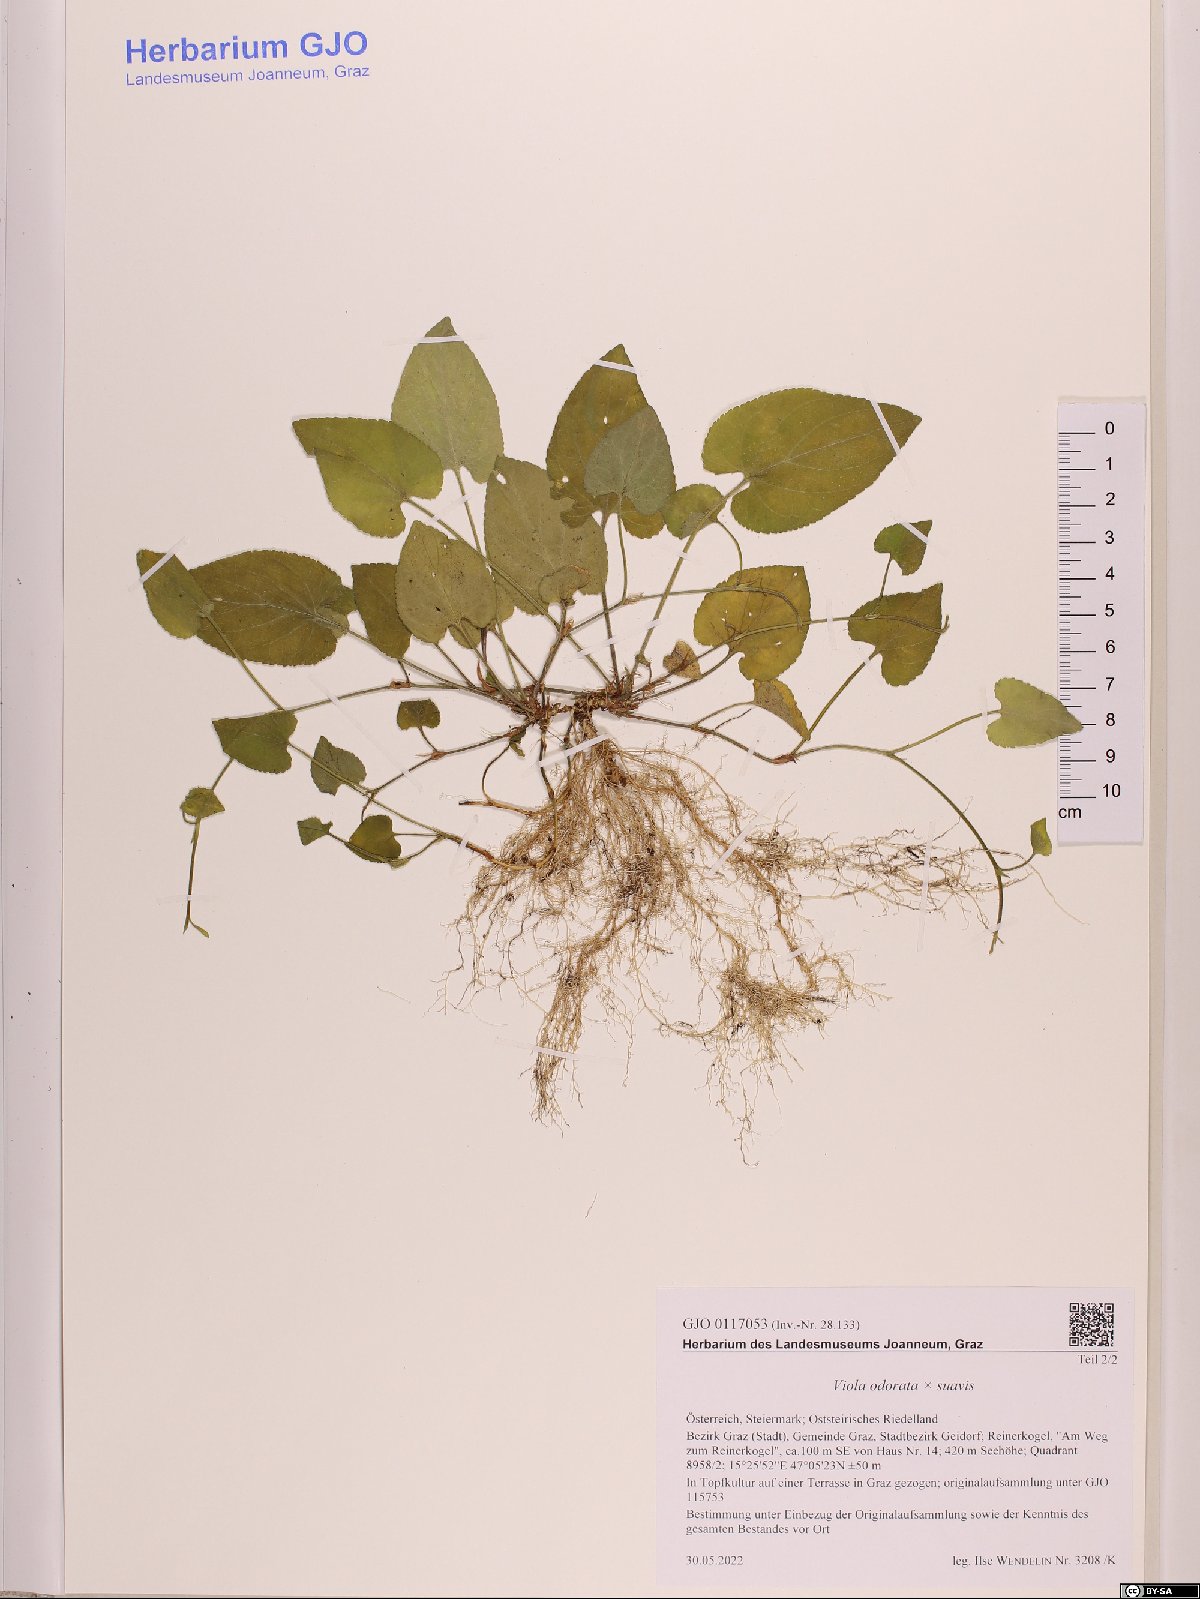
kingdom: Plantae
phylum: Tracheophyta
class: Magnoliopsida
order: Malpighiales
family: Violaceae
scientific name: Violaceae
